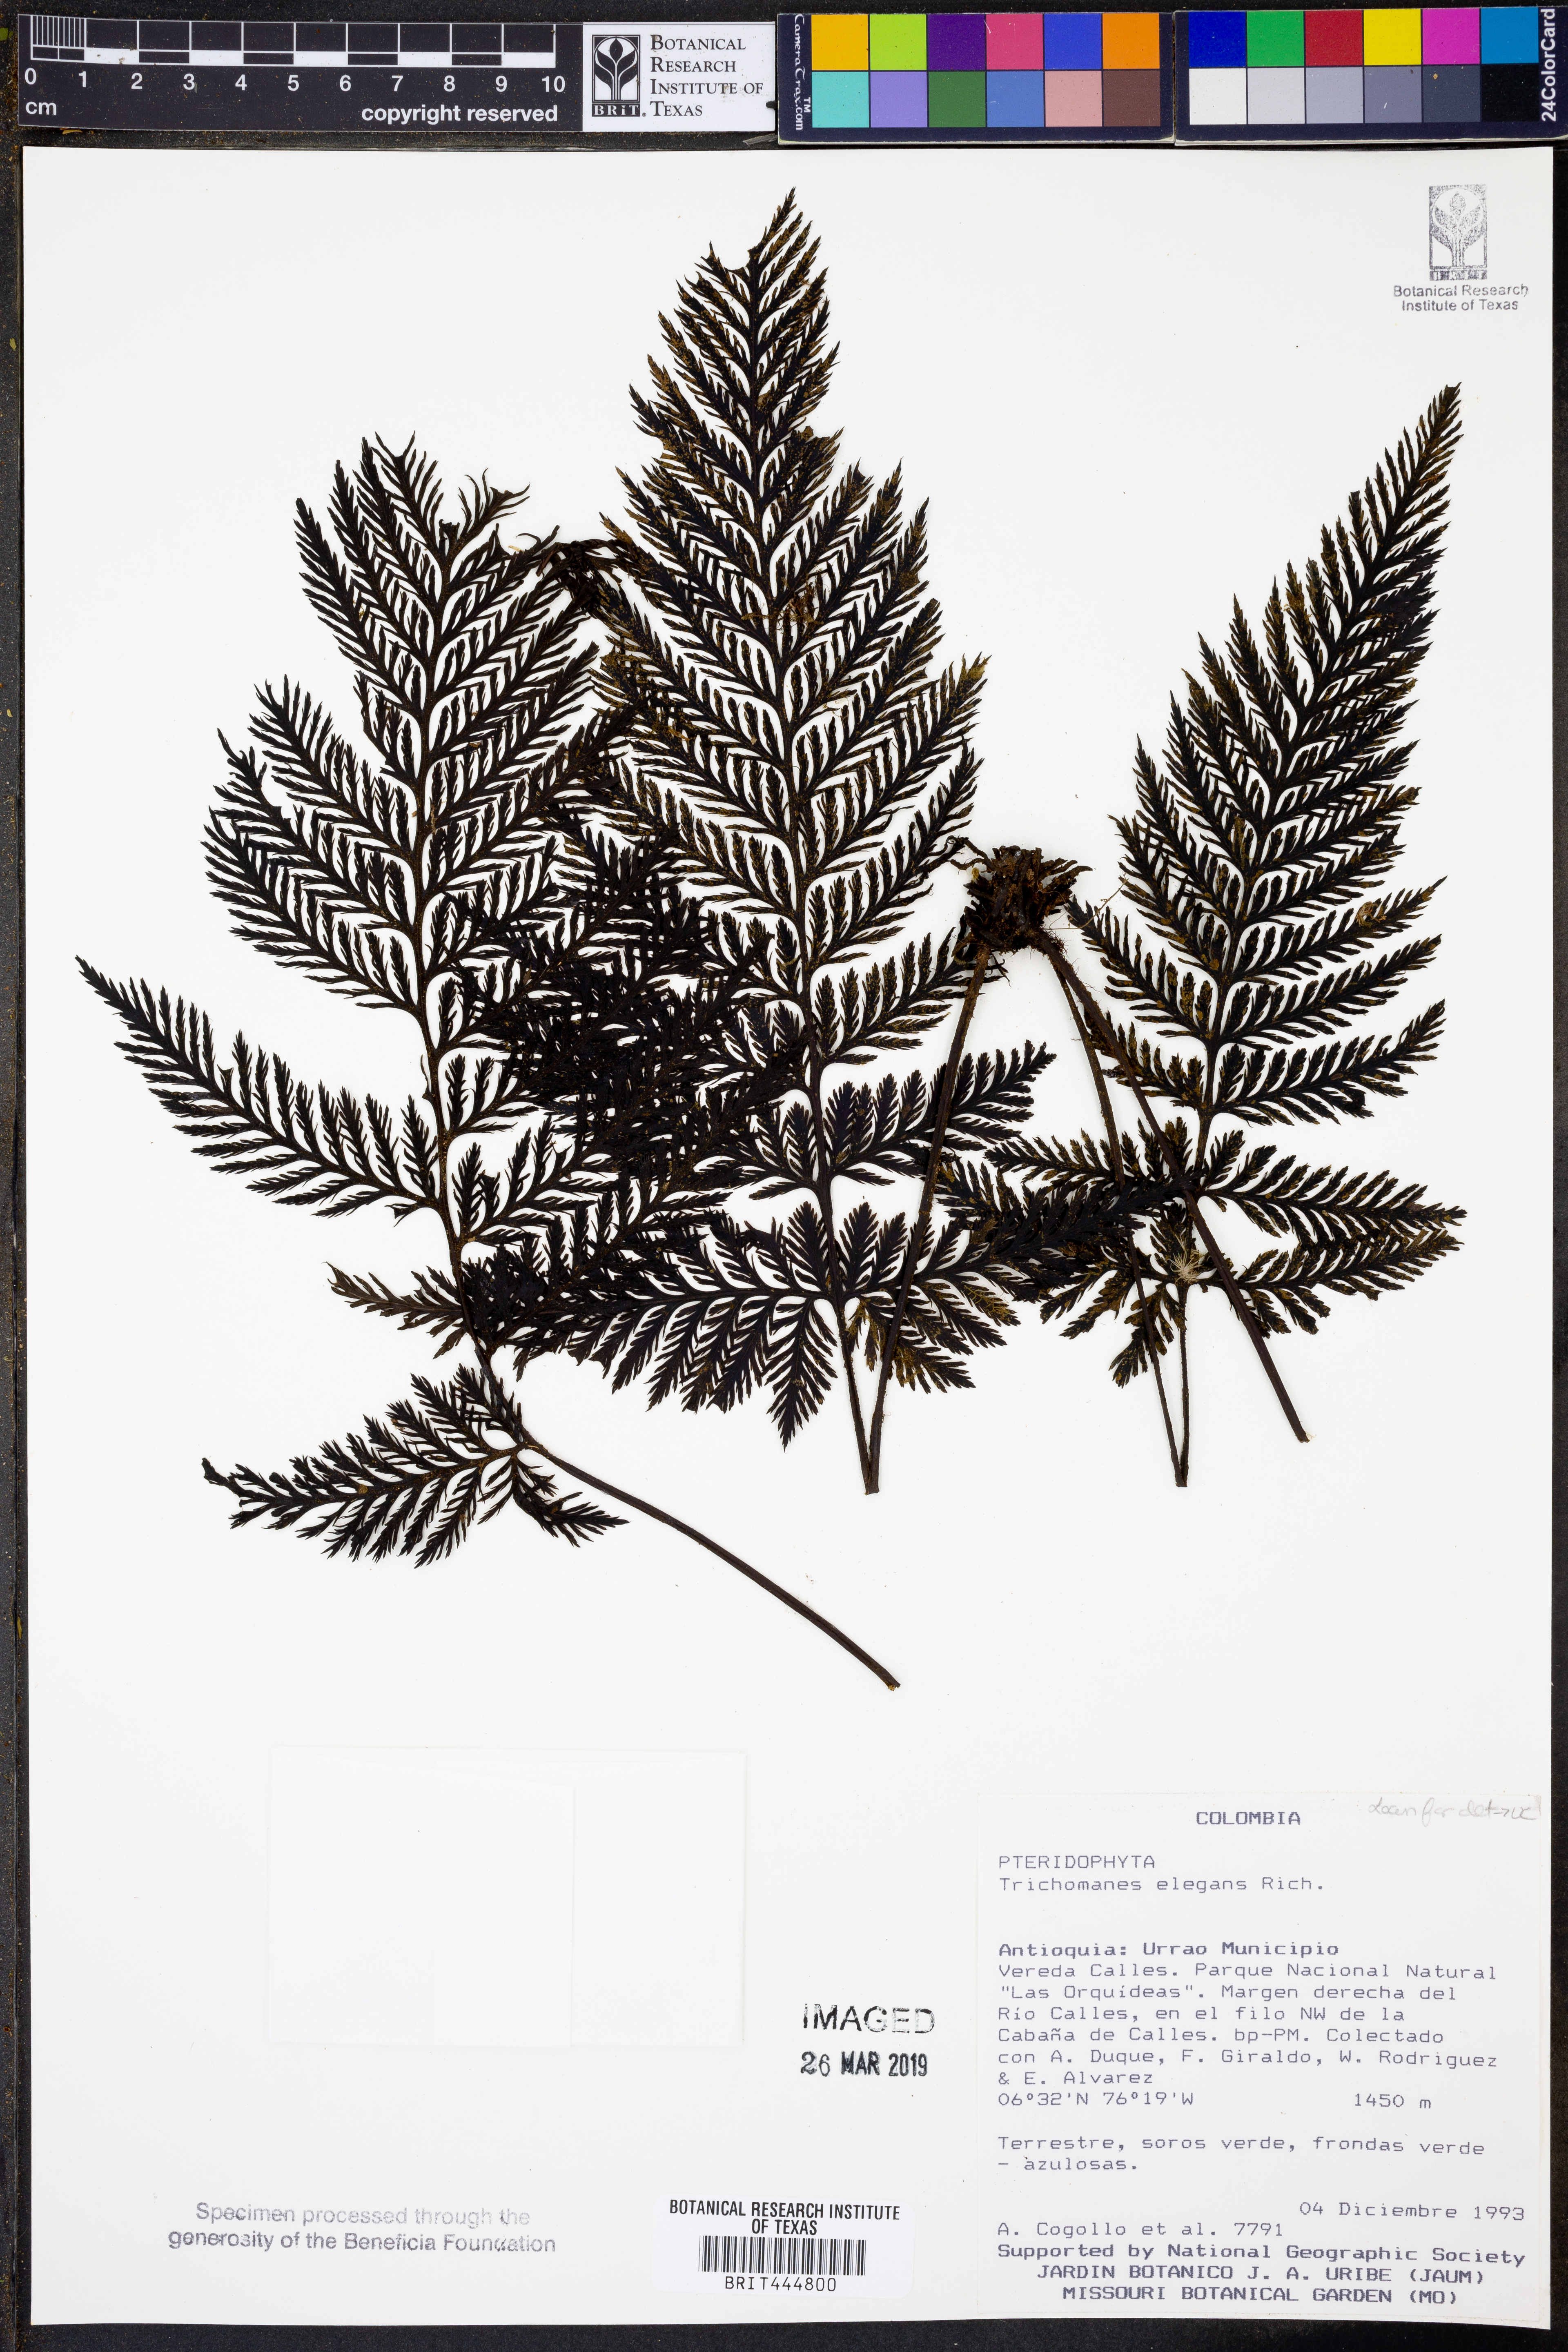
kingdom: Plantae
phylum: Tracheophyta
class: Polypodiopsida
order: Hymenophyllales
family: Hymenophyllaceae
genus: Trichomanes
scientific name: Trichomanes elegans
